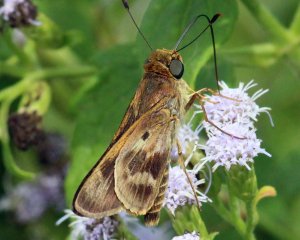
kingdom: Animalia
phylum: Arthropoda
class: Insecta
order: Lepidoptera
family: Hesperiidae
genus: Nyctelius
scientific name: Nyctelius nyctelius
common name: Violet-banded Skipper
